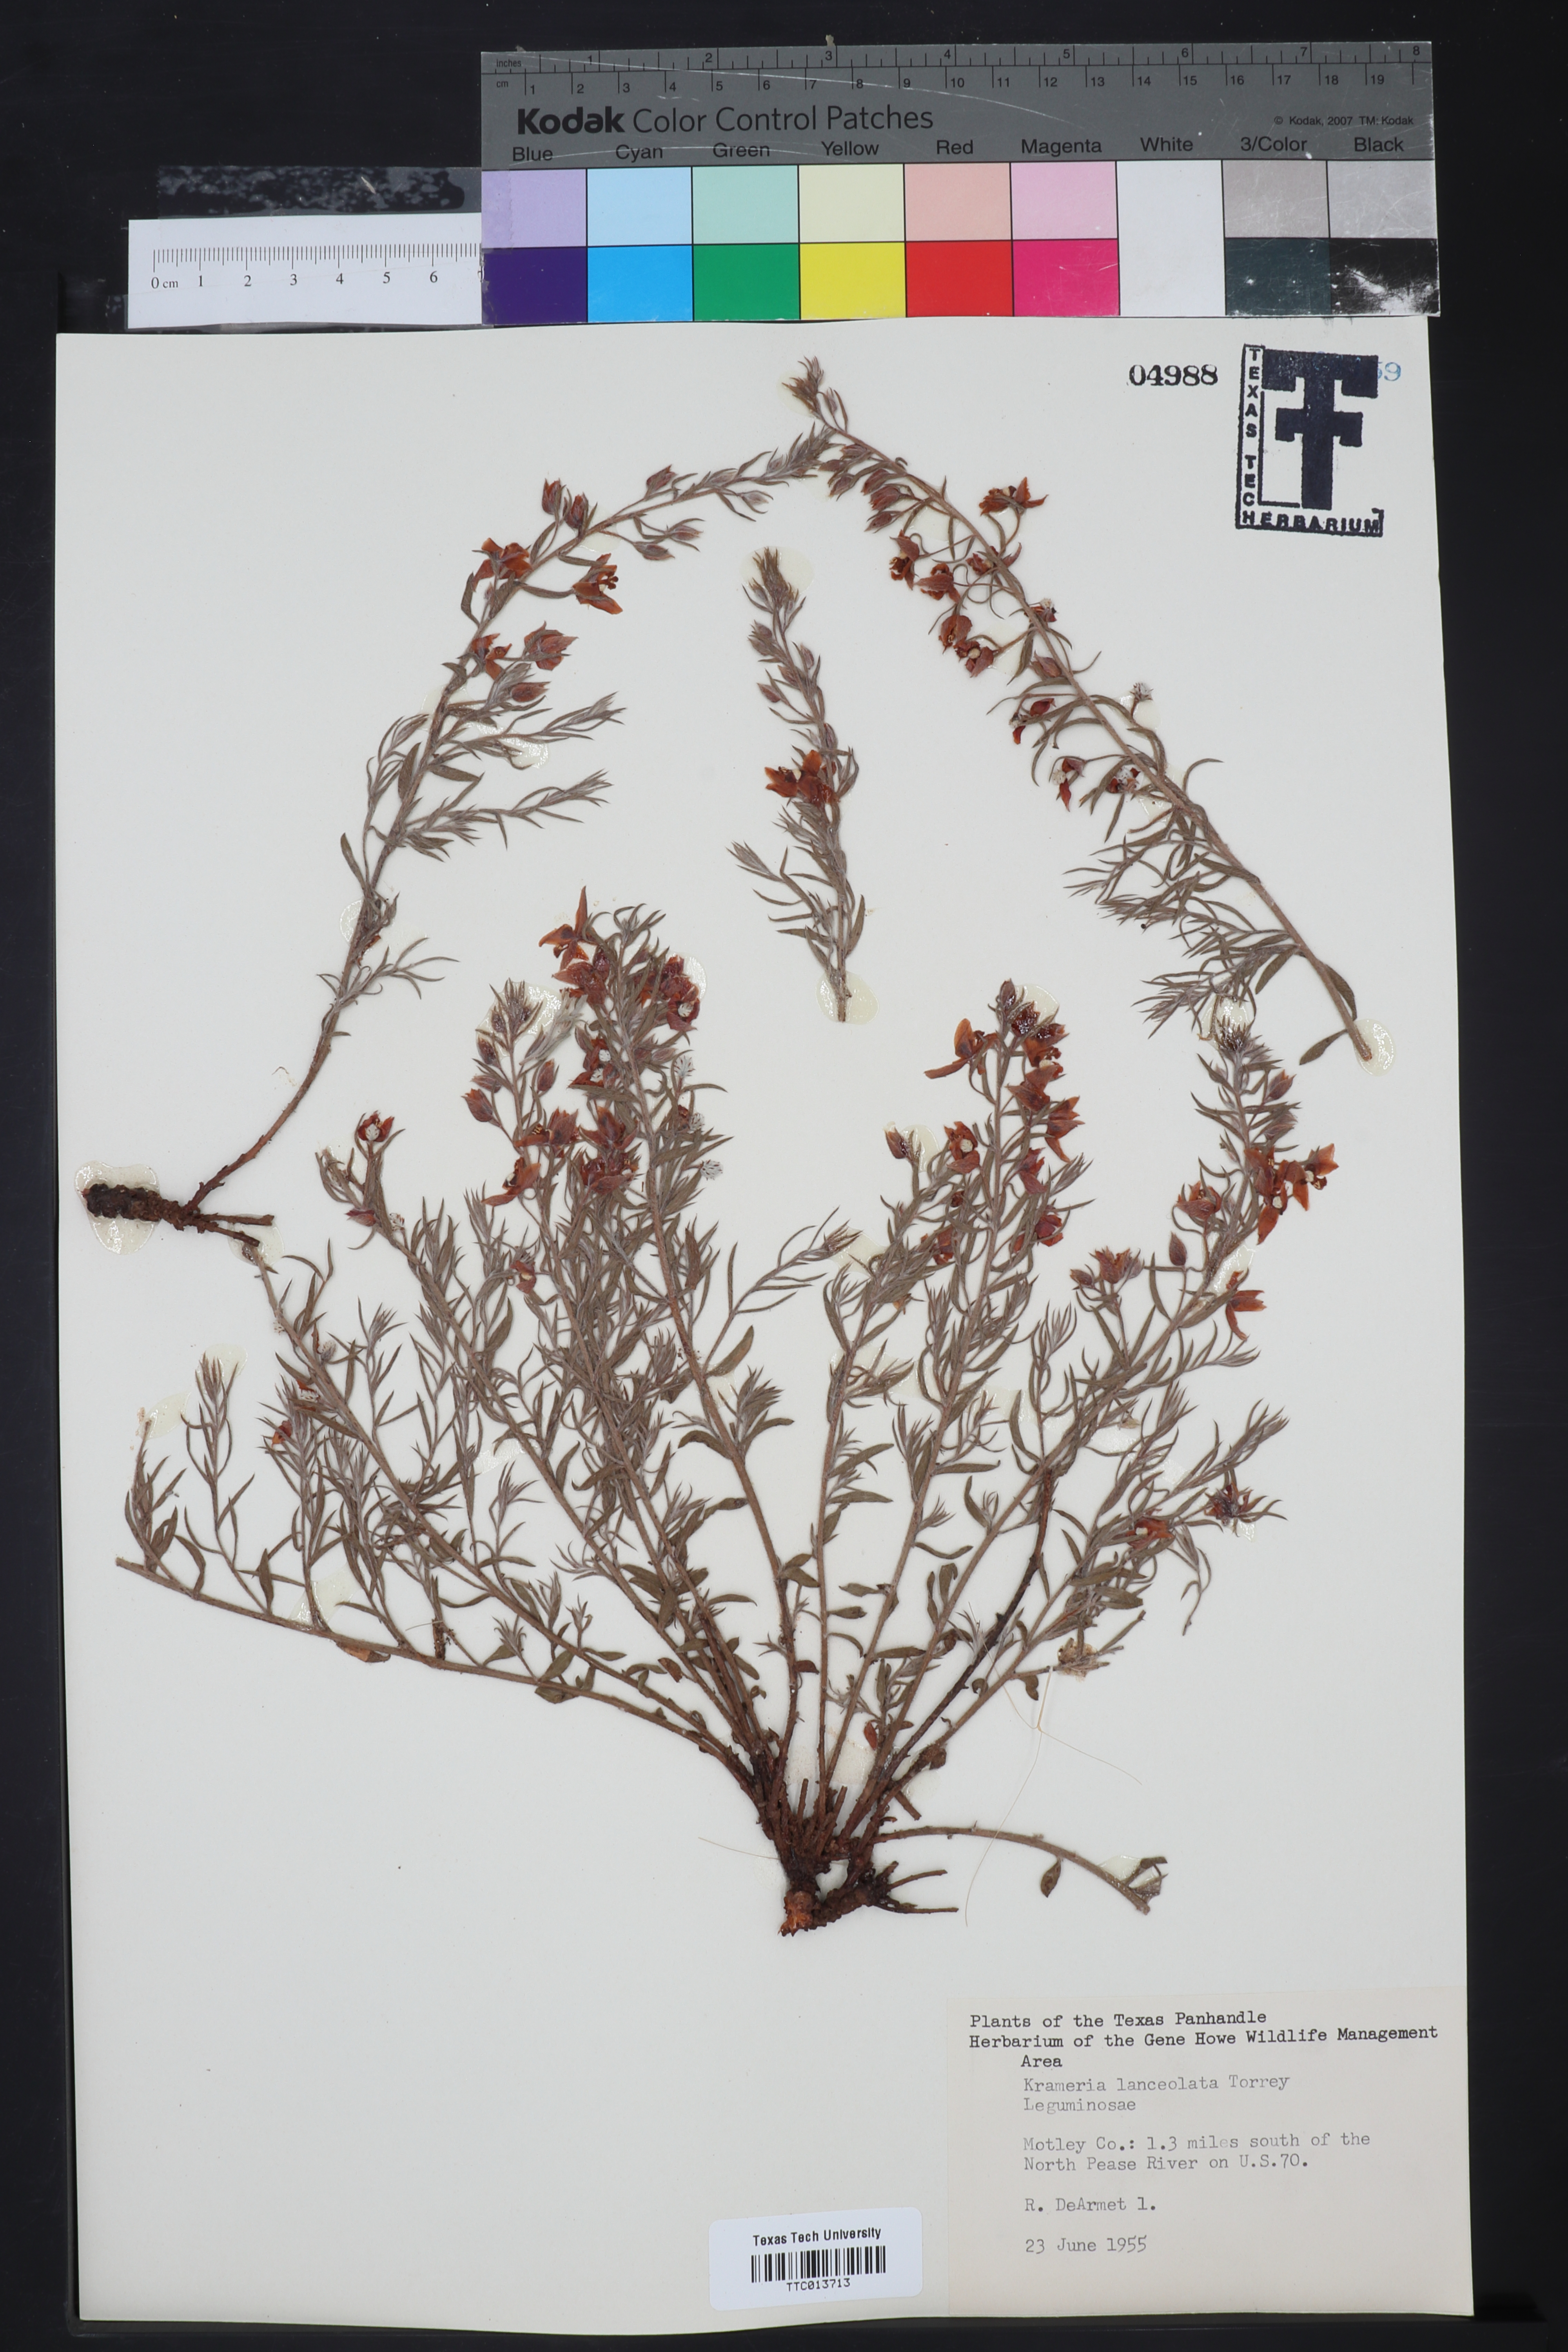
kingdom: Plantae
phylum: Tracheophyta
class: Magnoliopsida
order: Zygophyllales
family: Krameriaceae
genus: Krameria
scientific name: Krameria lanceolata
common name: Ratany
